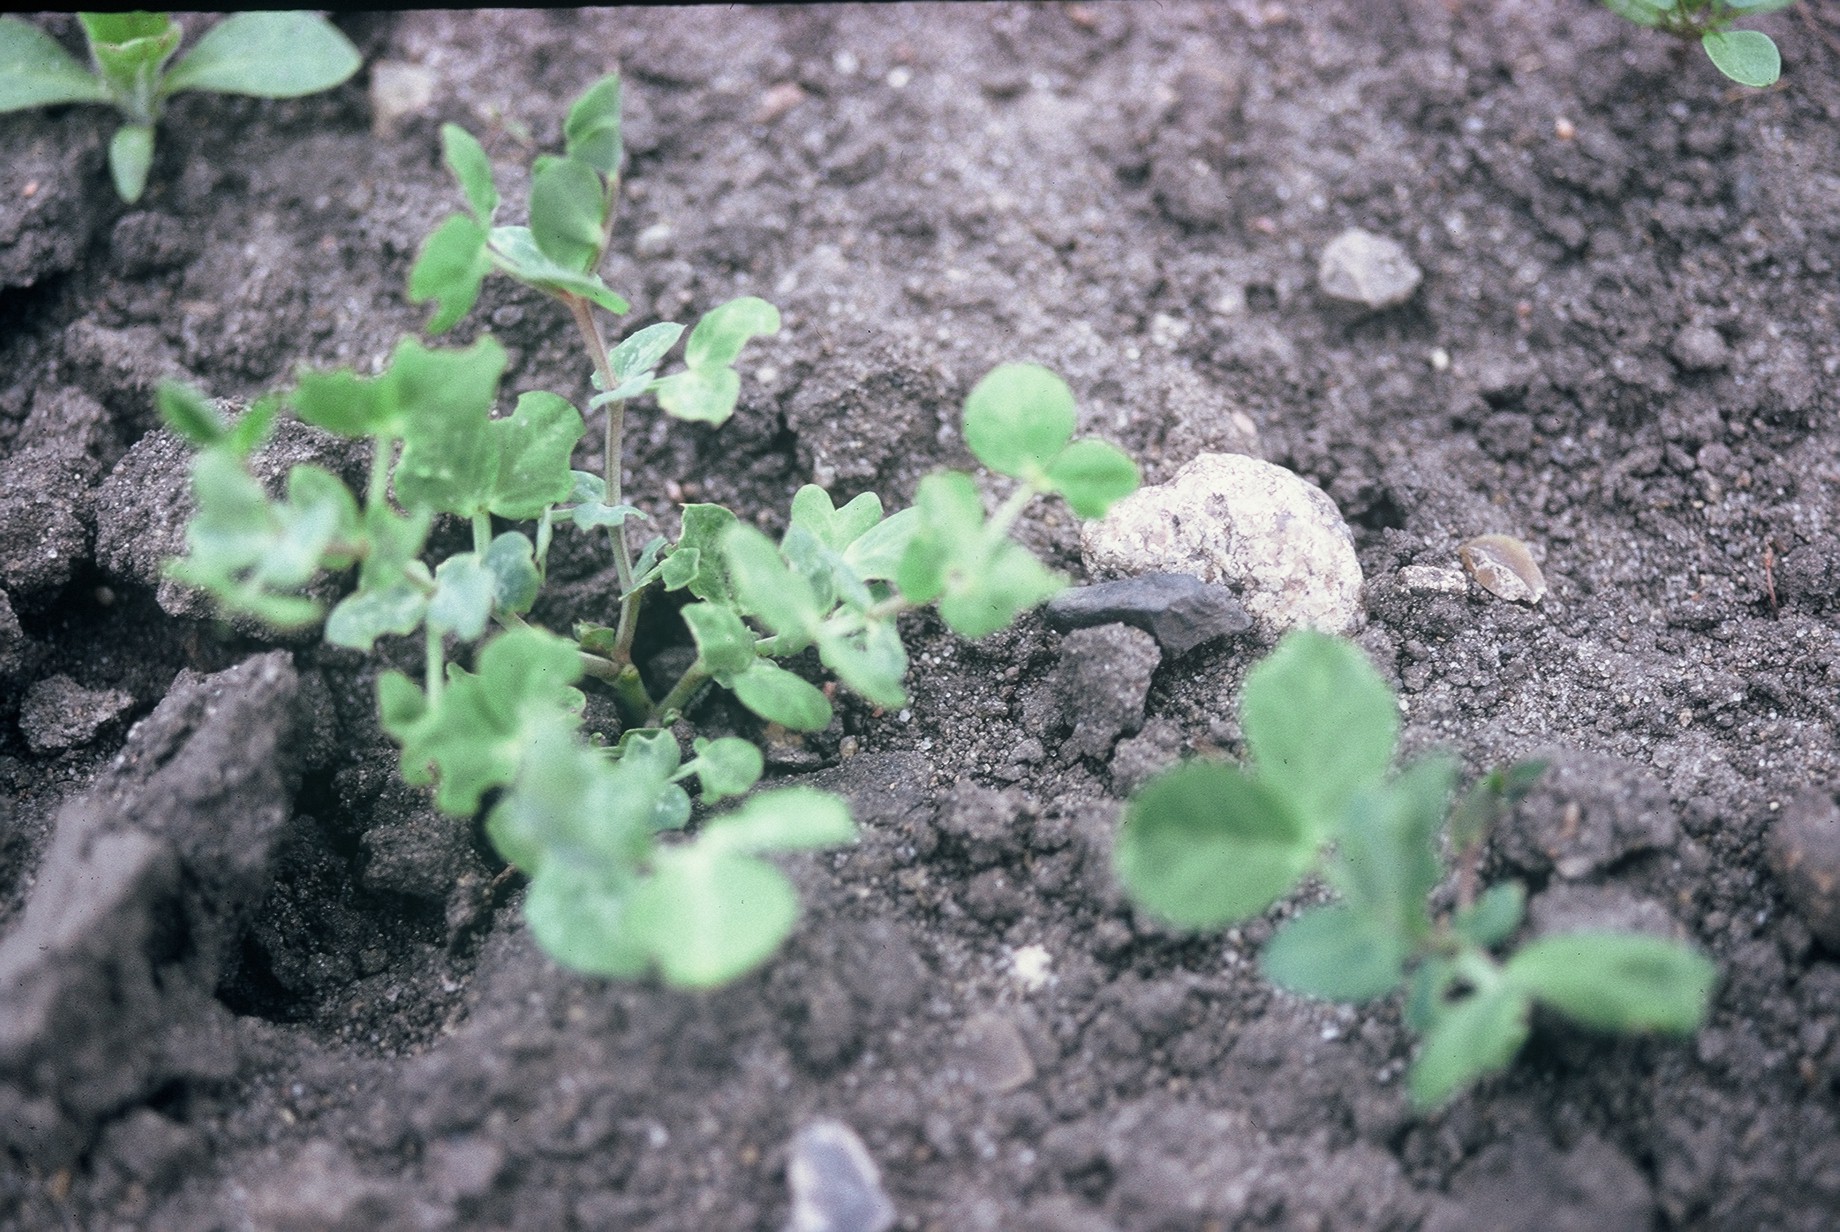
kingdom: Plantae
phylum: Tracheophyta
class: Magnoliopsida
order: Fabales
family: Fabaceae
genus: Lathyrus
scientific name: Lathyrus oleraceus
